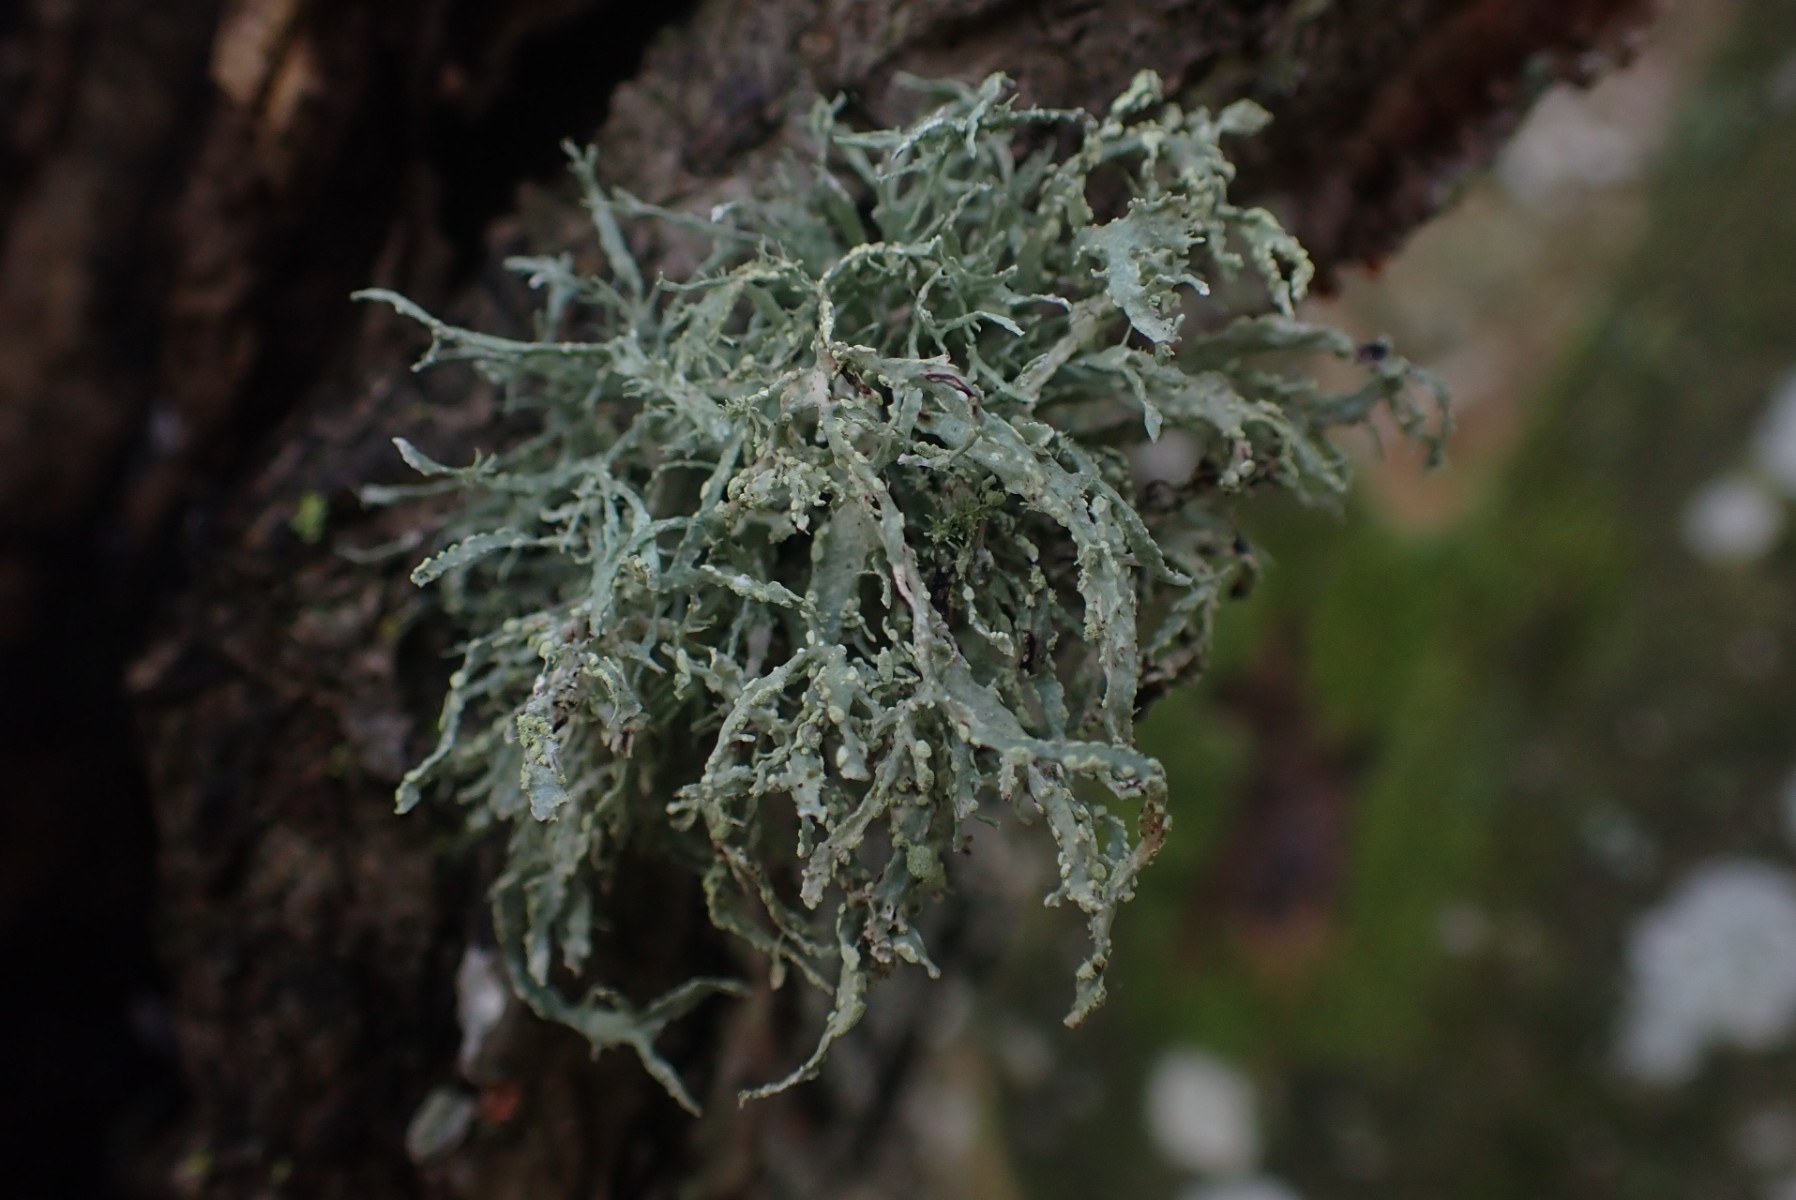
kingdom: Fungi
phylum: Ascomycota
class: Lecanoromycetes
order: Lecanorales
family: Ramalinaceae
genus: Ramalina
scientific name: Ramalina farinacea
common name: melet grenlav
